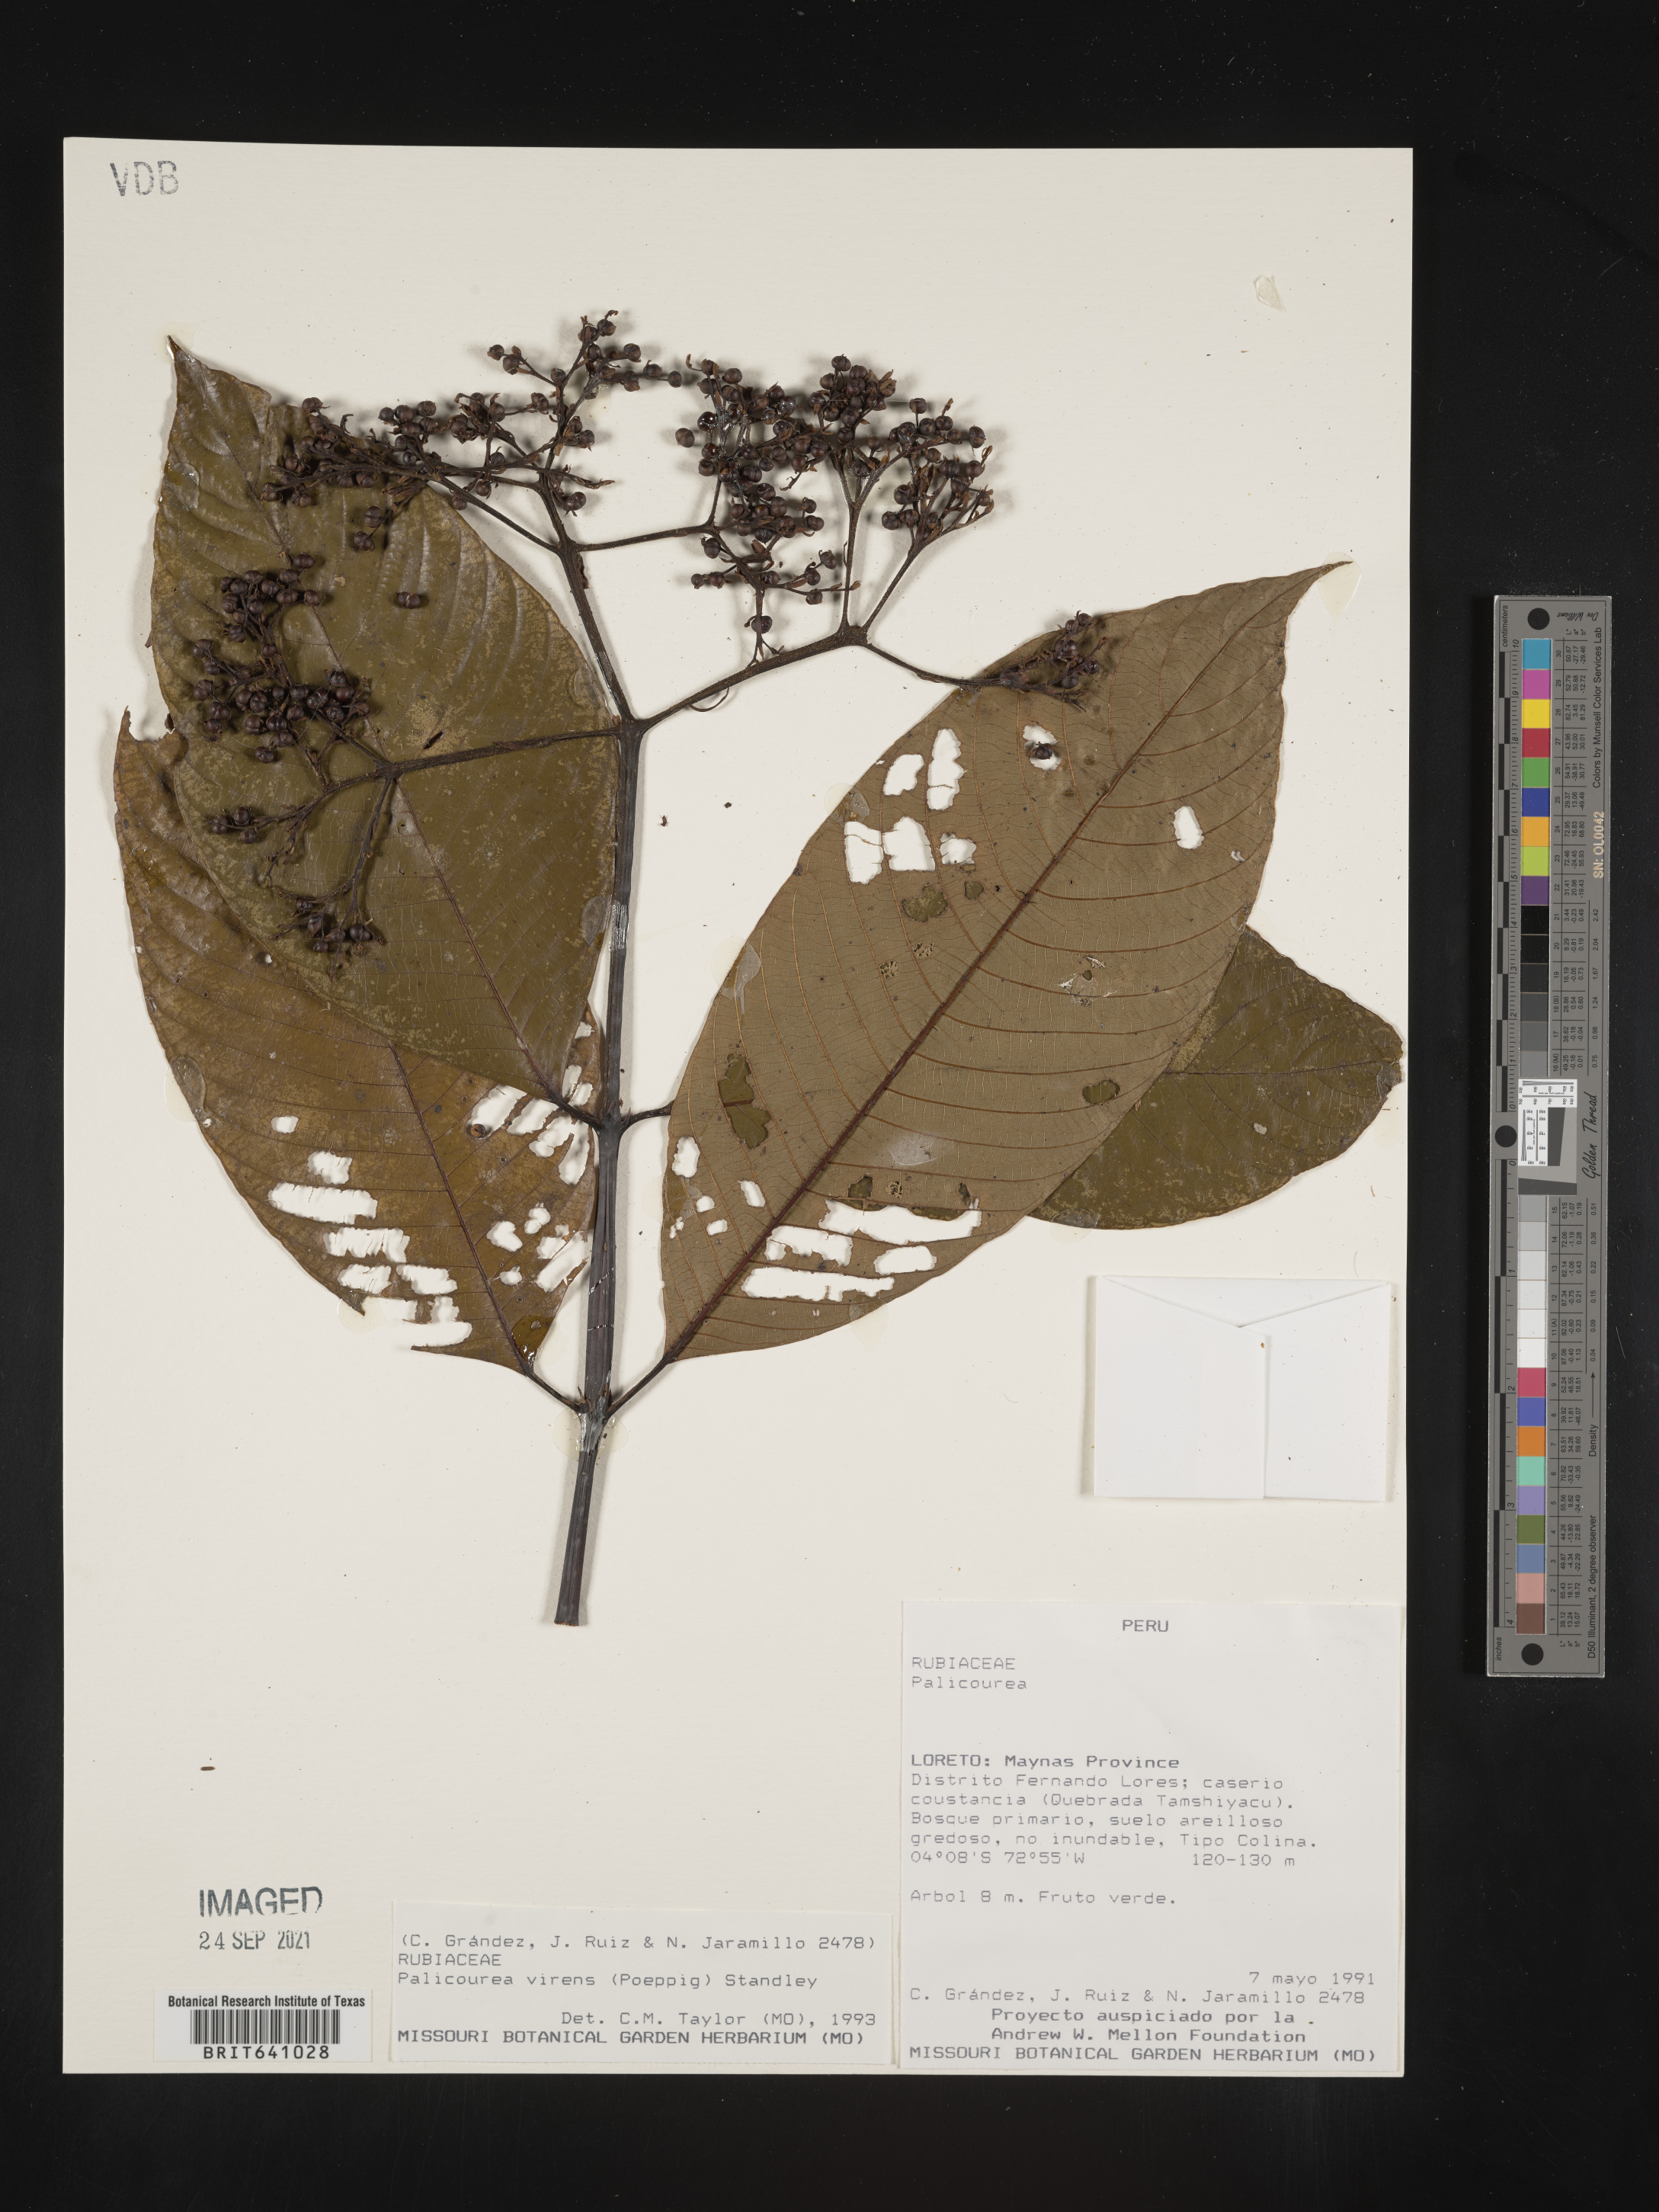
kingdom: Plantae
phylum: Tracheophyta
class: Magnoliopsida
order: Gentianales
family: Rubiaceae
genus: Palicourea
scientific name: Palicourea
